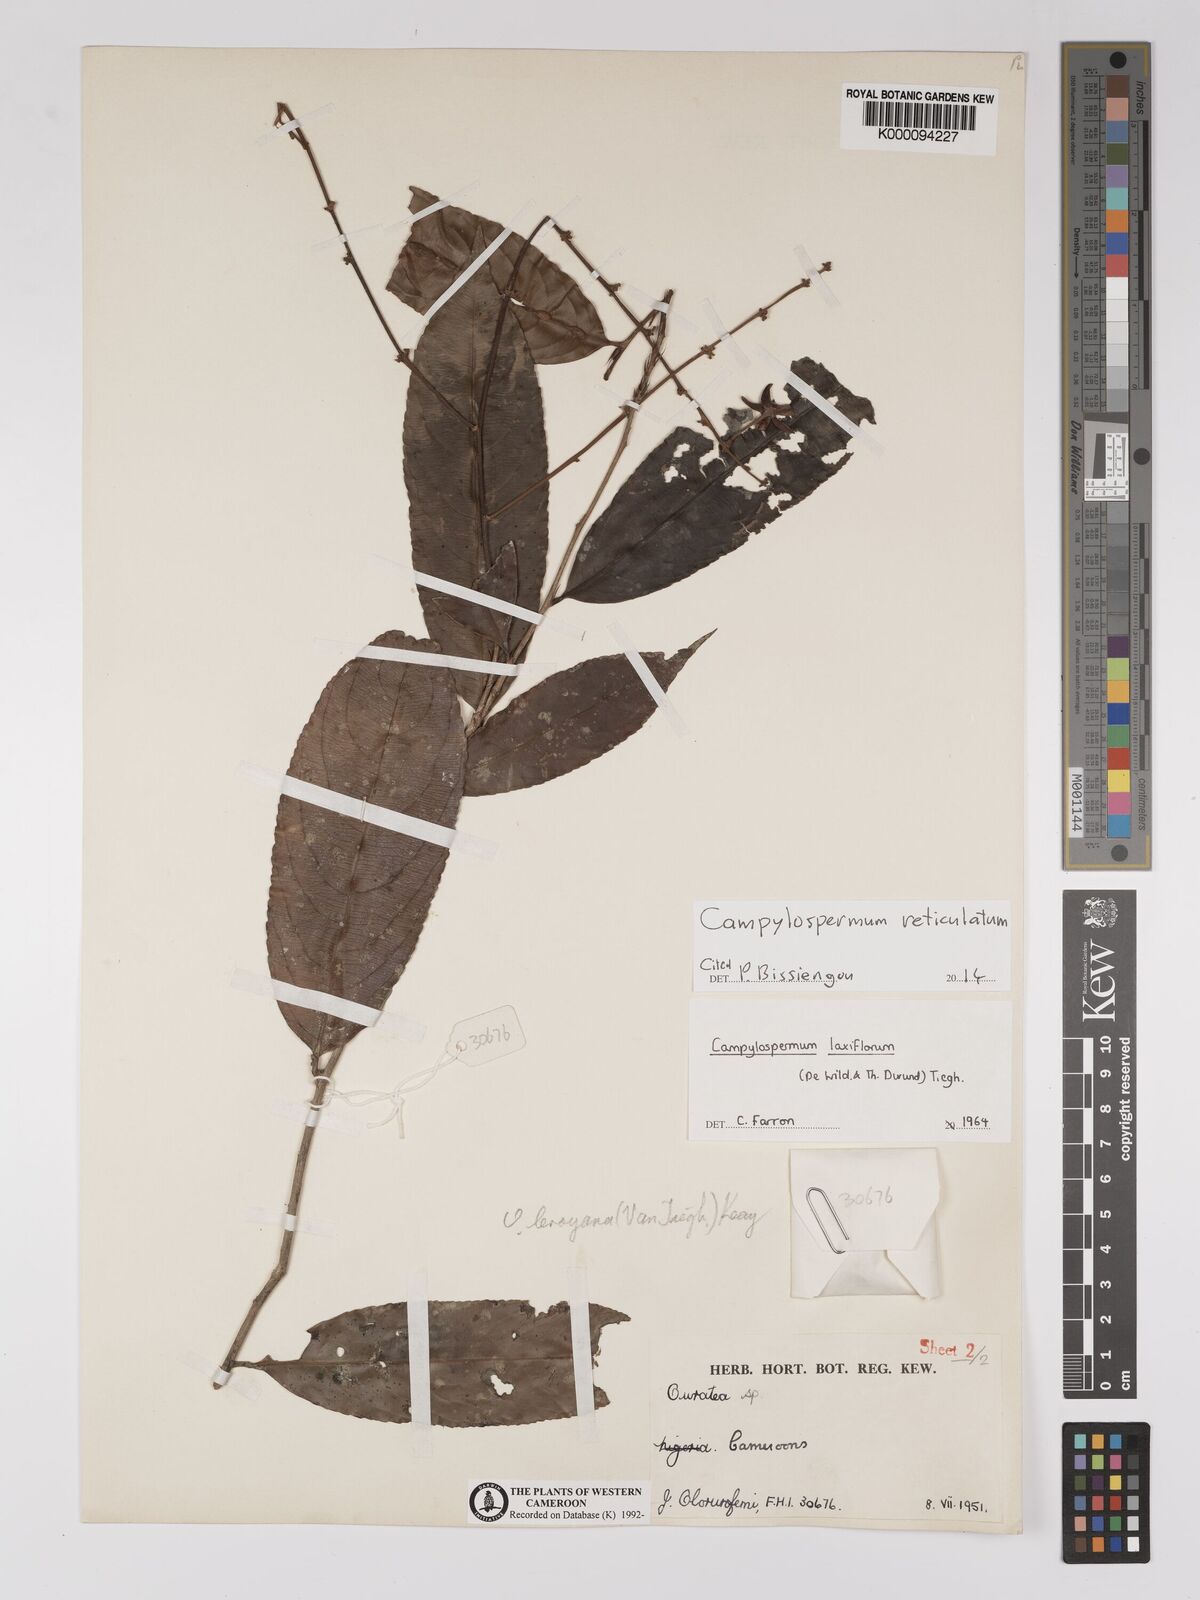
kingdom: Plantae
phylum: Tracheophyta
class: Magnoliopsida
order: Malpighiales
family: Ochnaceae
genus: Campylospermum
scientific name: Campylospermum laxiflorum
